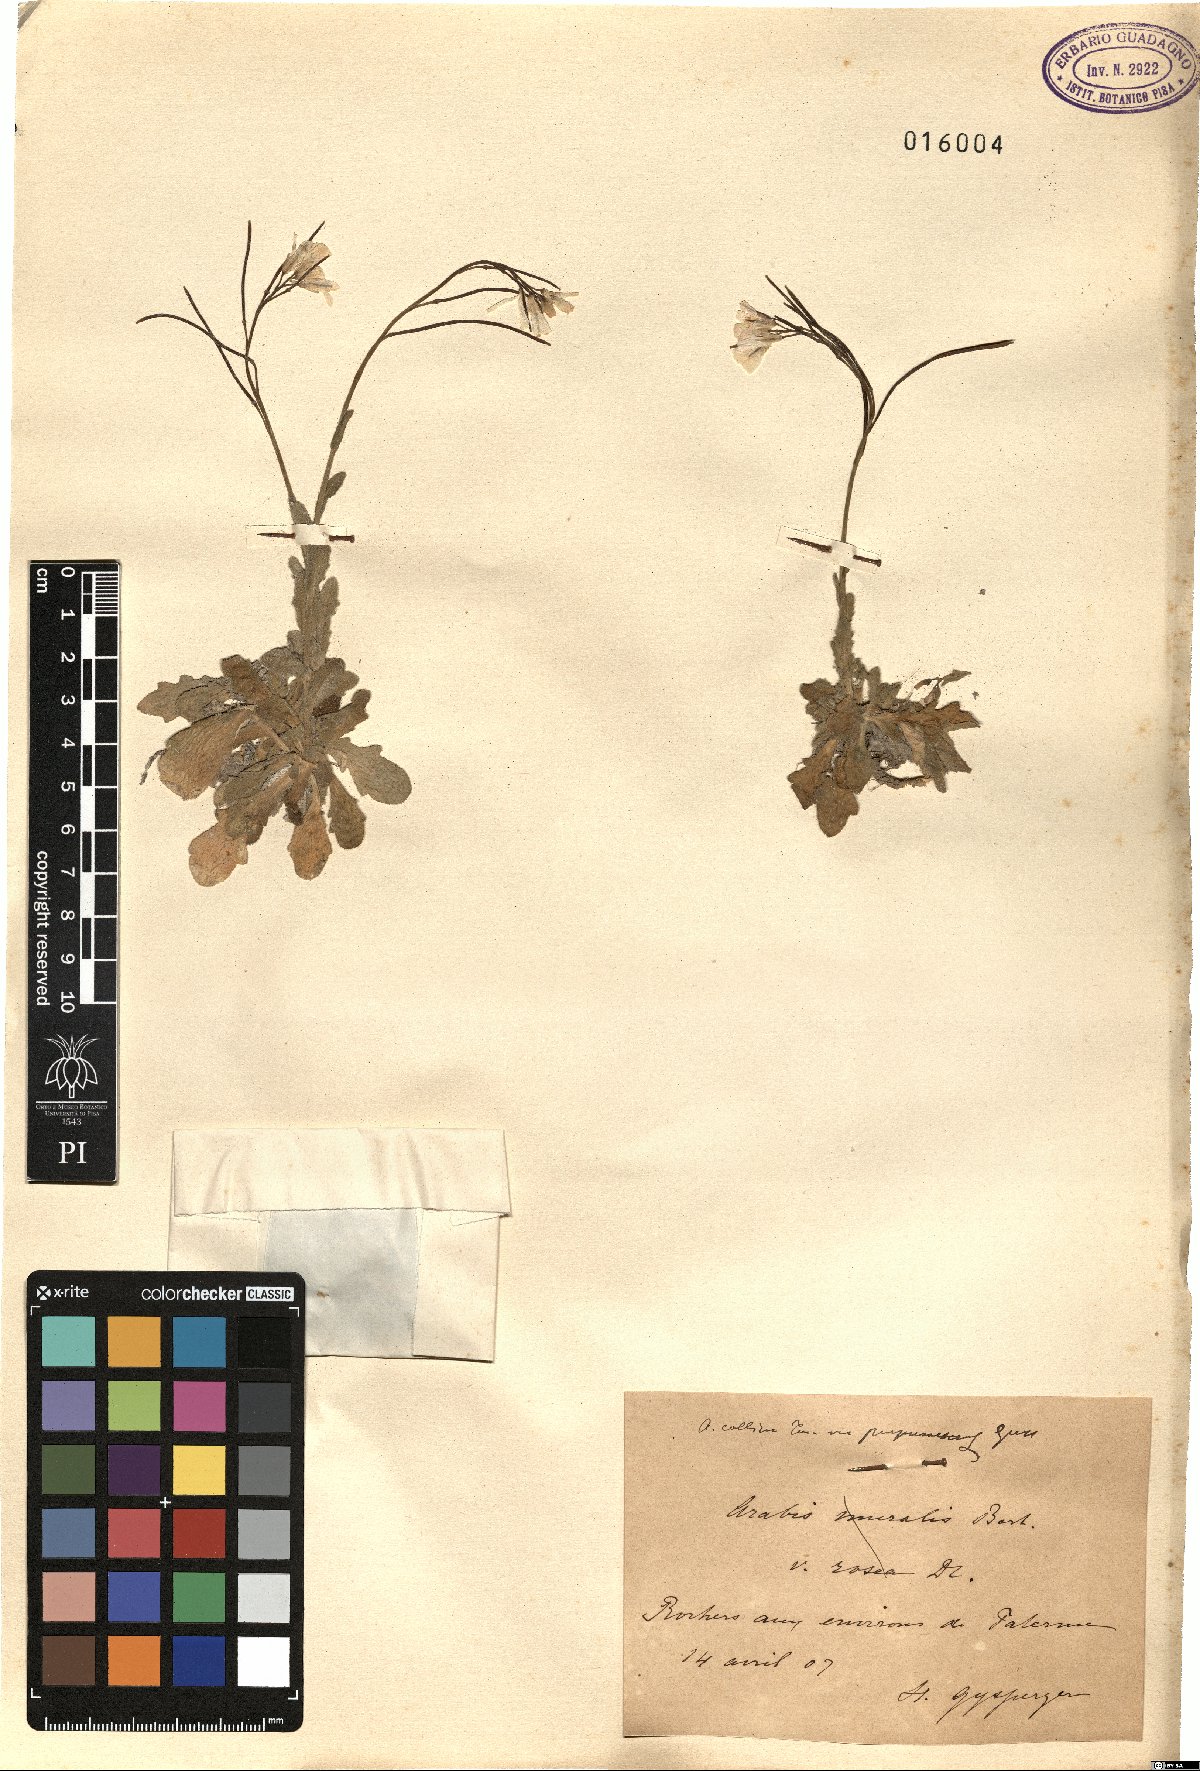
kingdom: Plantae
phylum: Tracheophyta
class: Magnoliopsida
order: Brassicales
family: Brassicaceae
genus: Arabis
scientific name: Arabis collina
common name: Rosy cress
